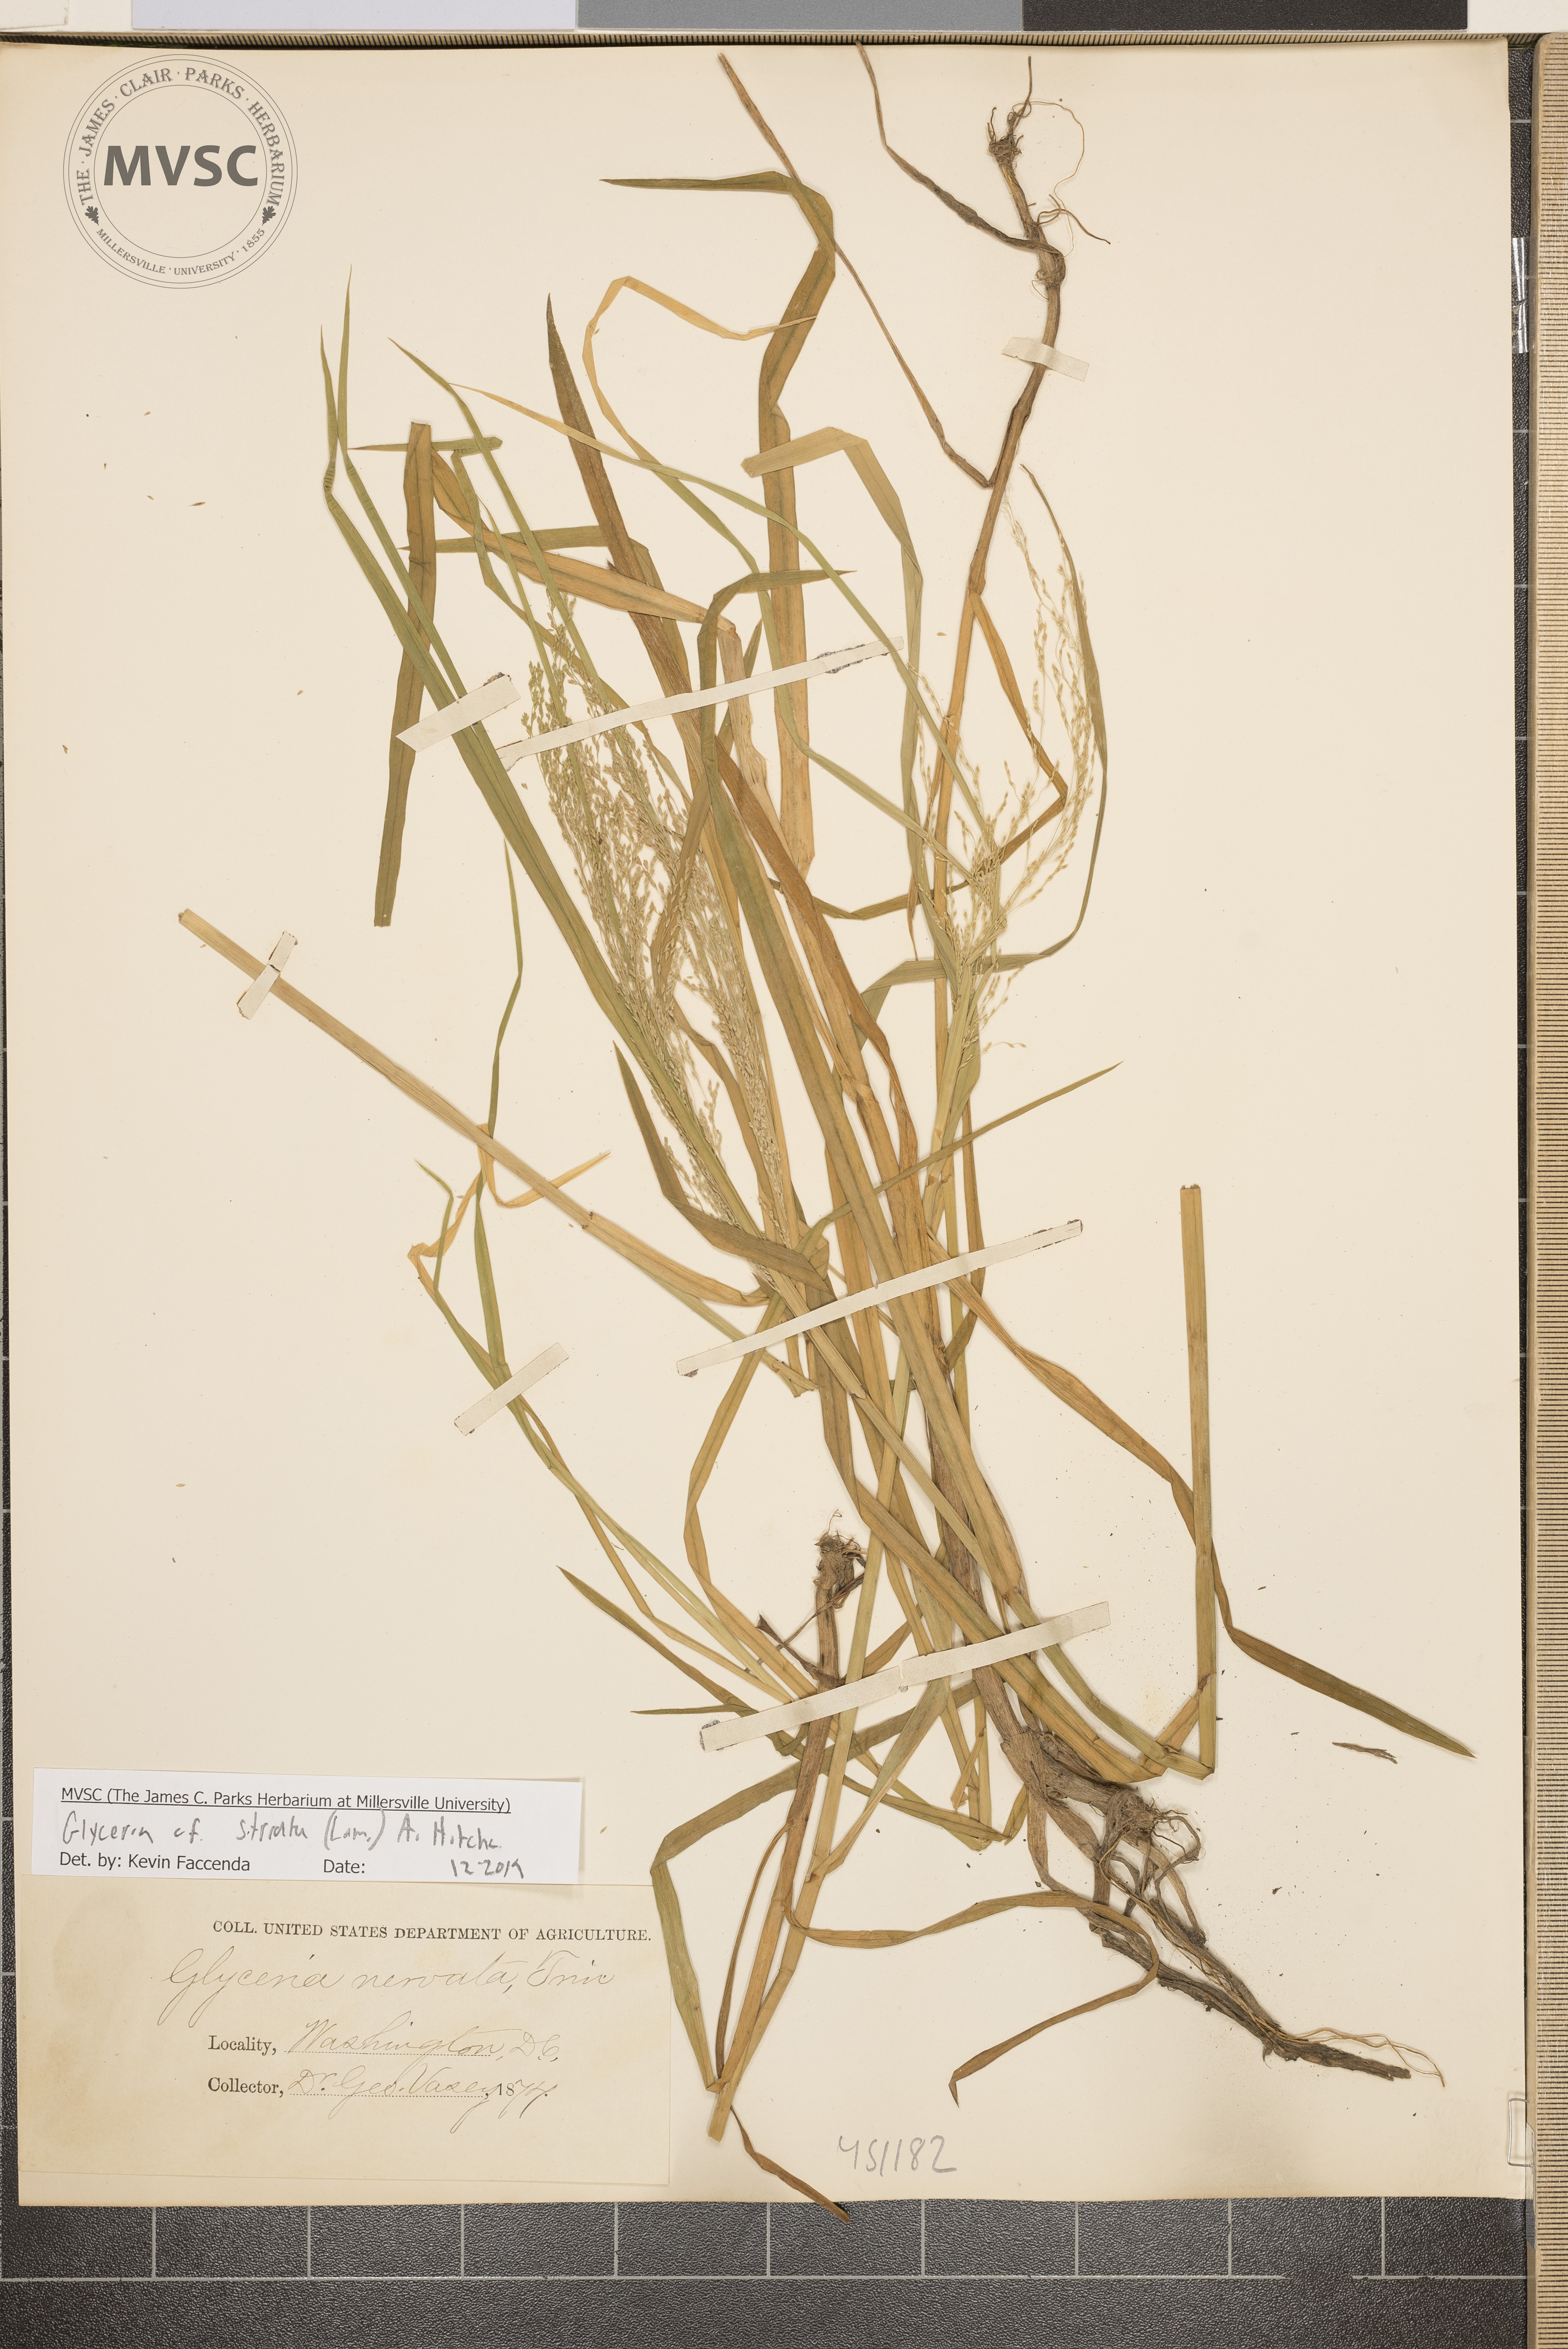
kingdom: Plantae
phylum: Tracheophyta
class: Liliopsida
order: Poales
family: Poaceae
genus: Glyceria
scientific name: Glyceria striata
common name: Fowl manna grass
